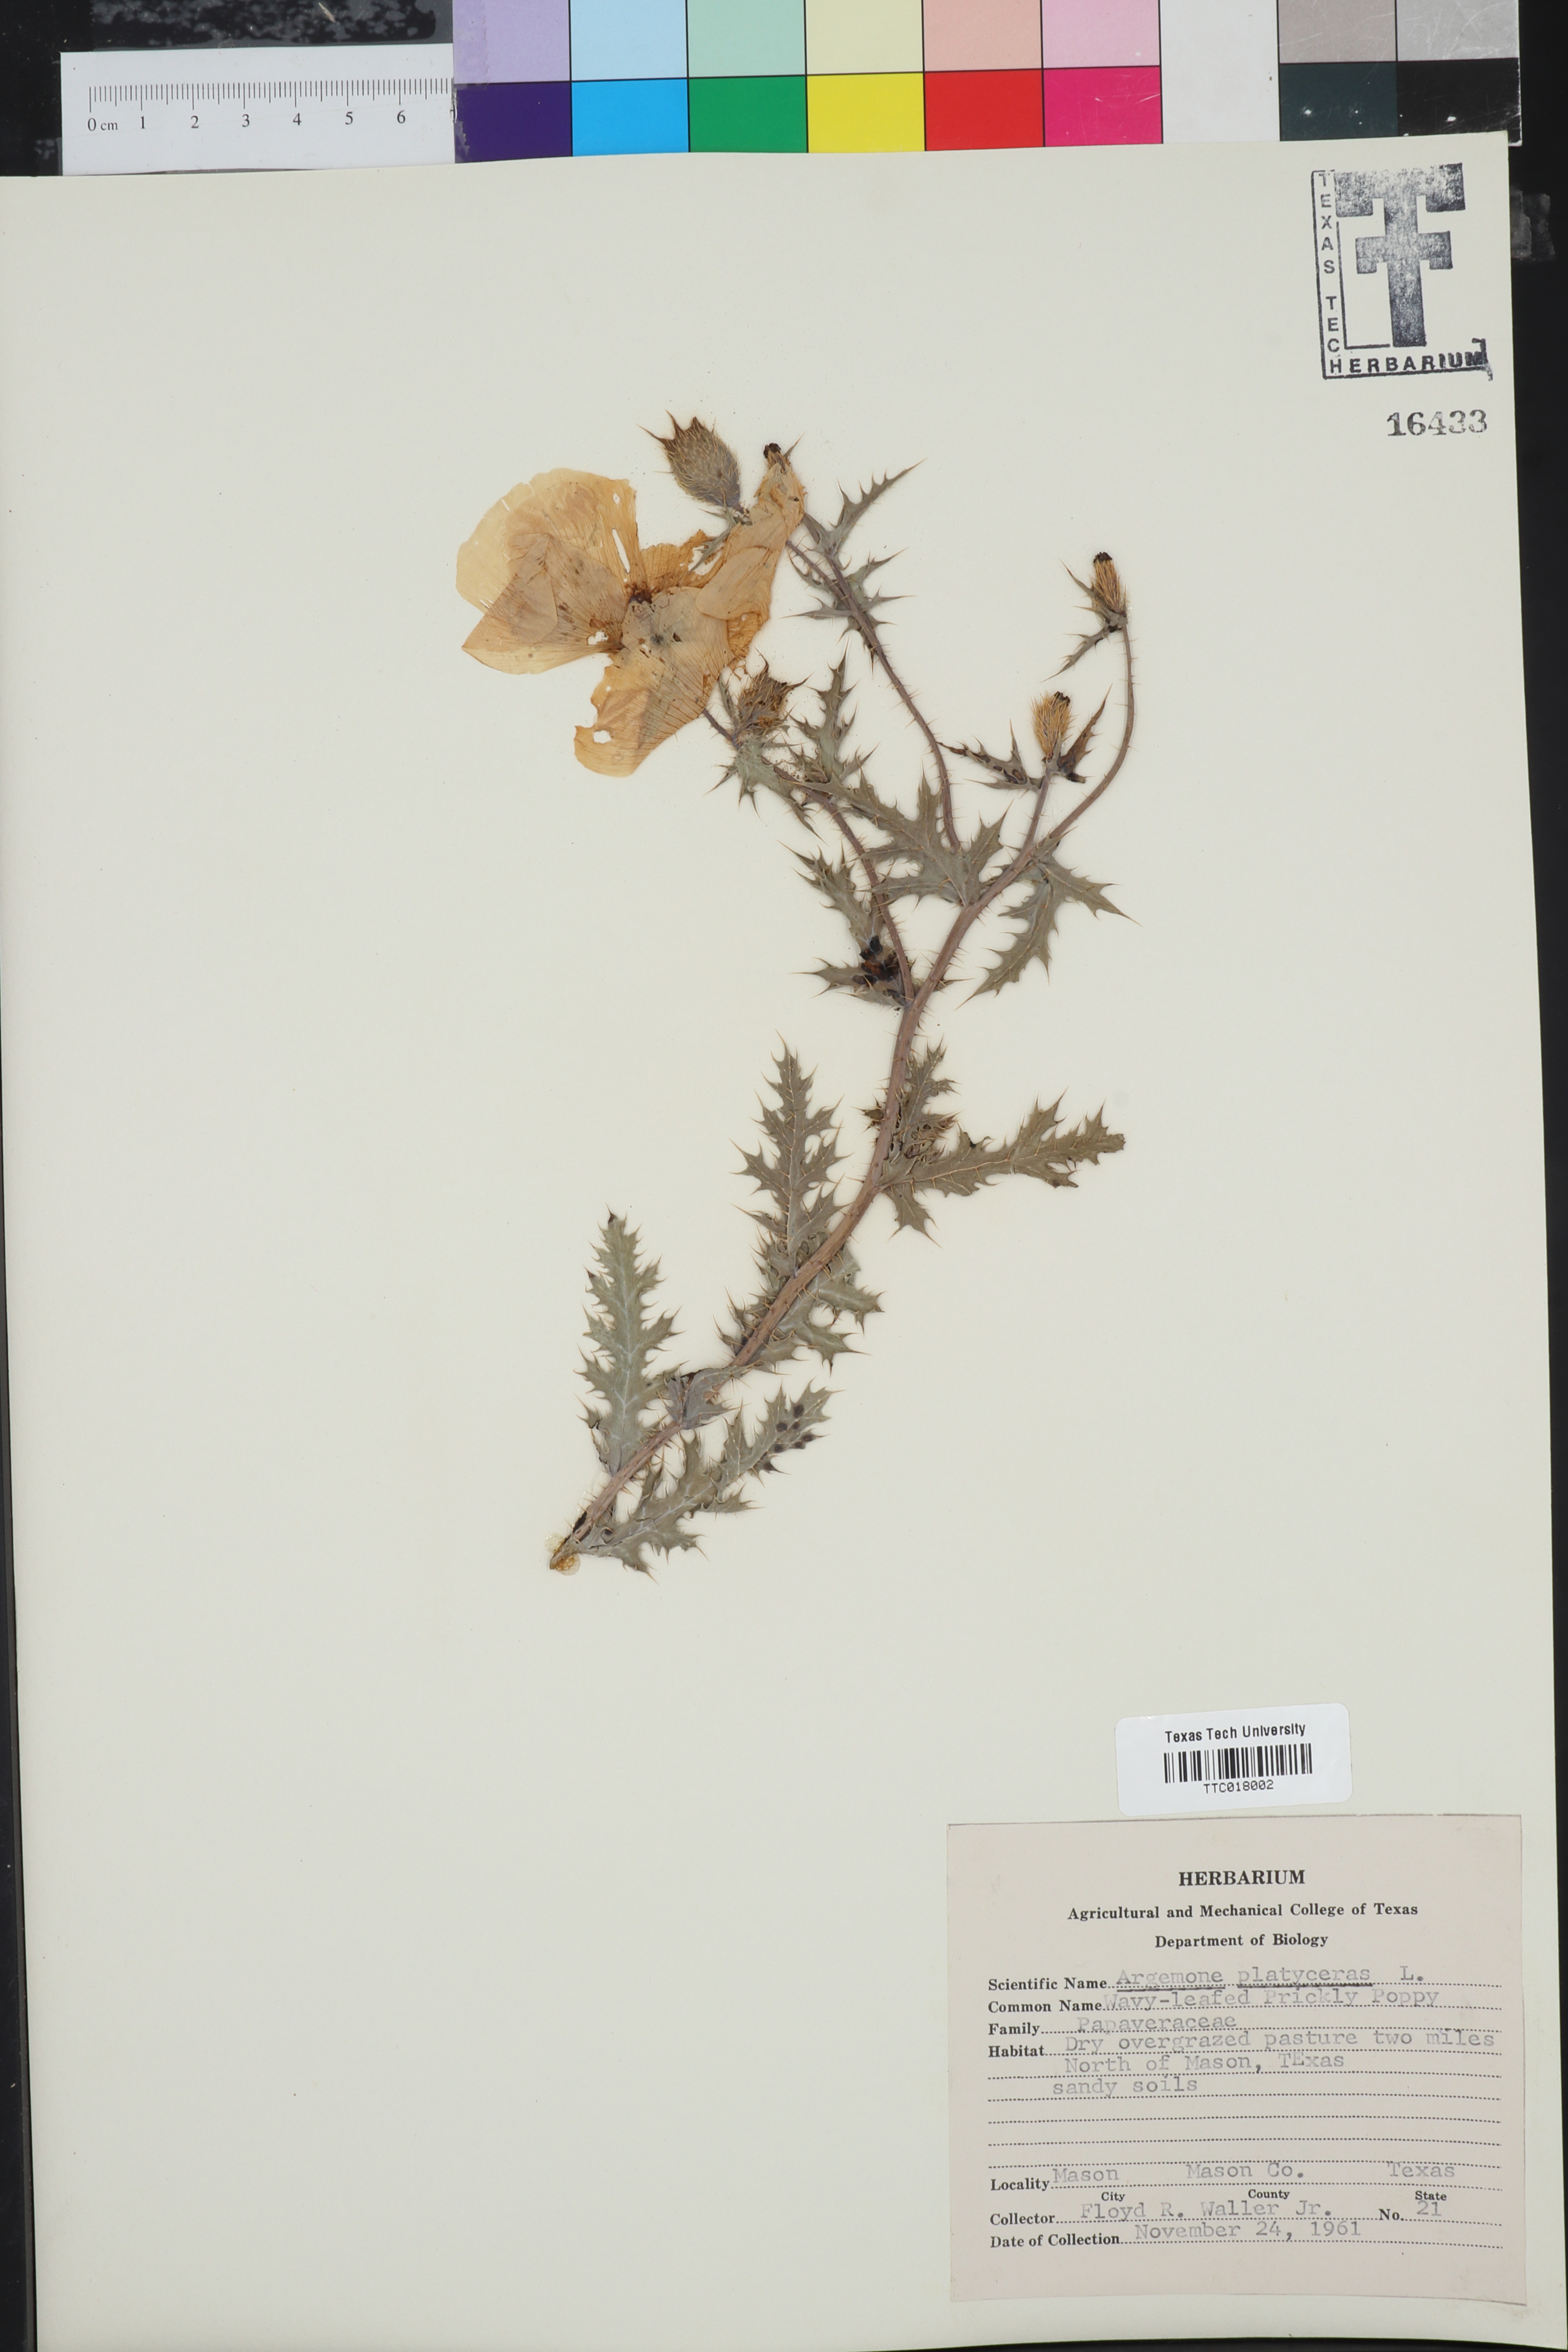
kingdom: Plantae
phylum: Tracheophyta
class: Magnoliopsida
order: Ranunculales
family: Papaveraceae
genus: Argemone
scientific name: Argemone platyceras
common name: Crested-poppy
